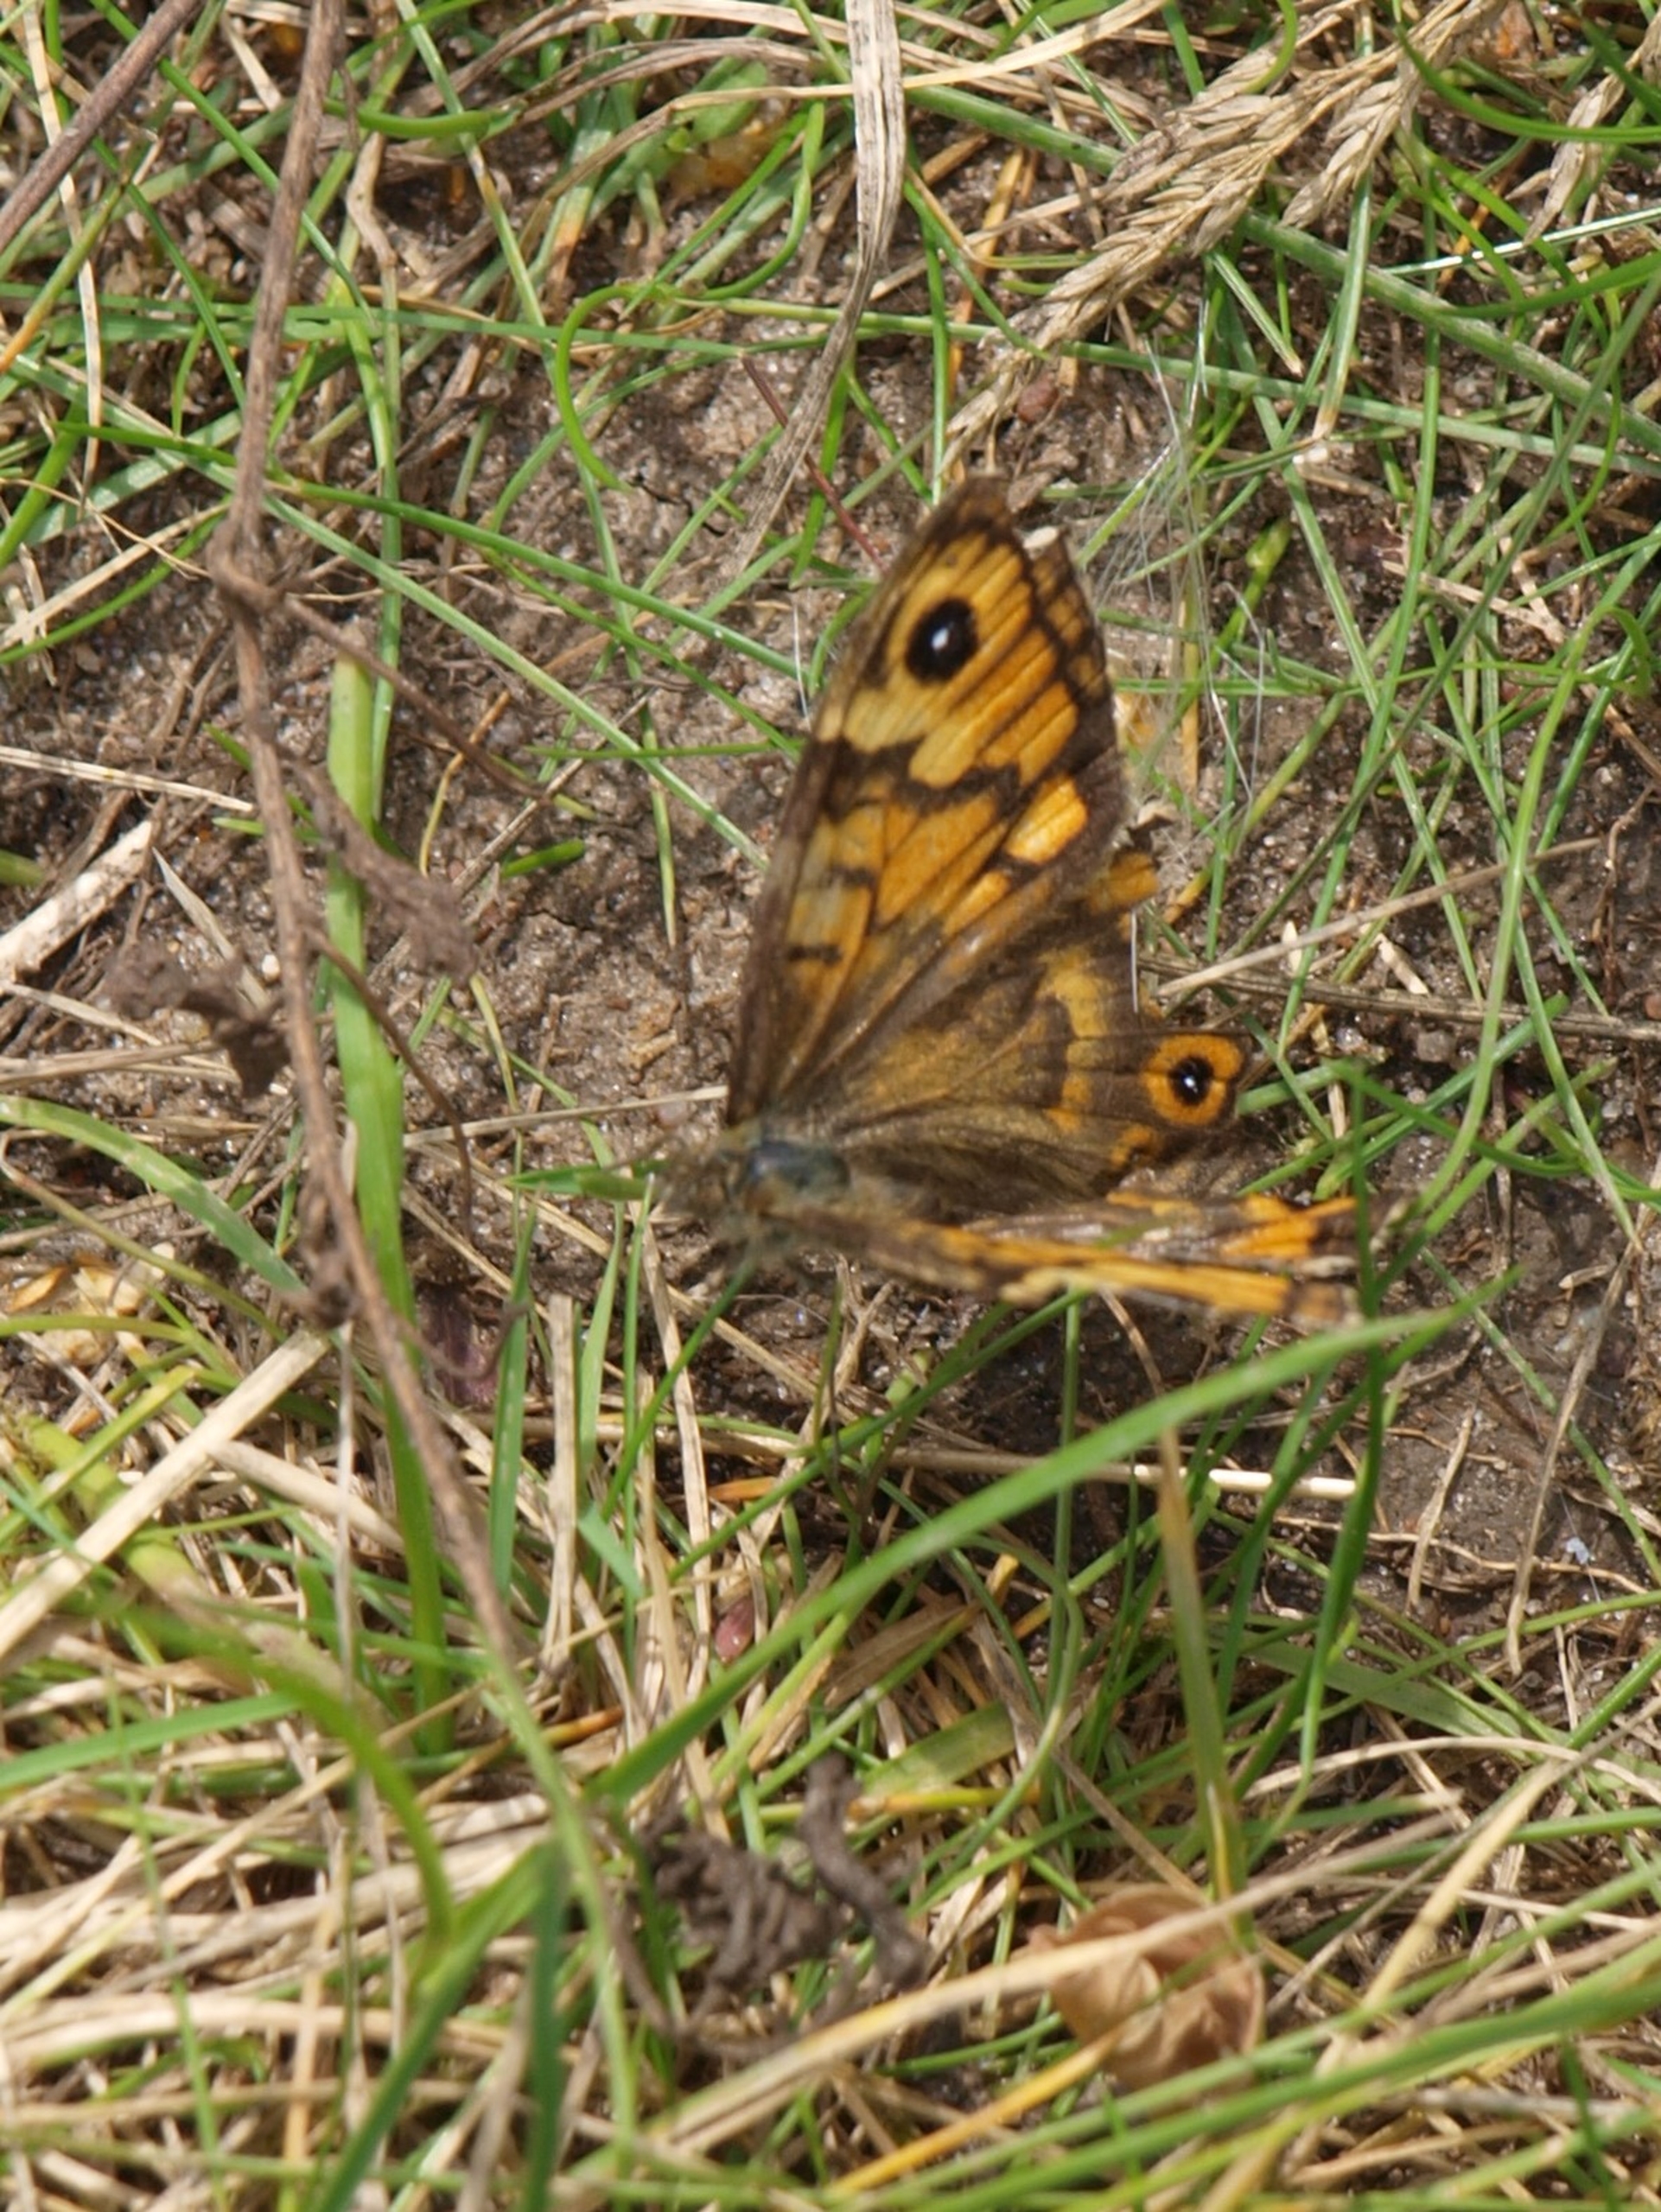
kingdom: Animalia
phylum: Arthropoda
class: Insecta
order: Lepidoptera
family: Nymphalidae
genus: Pararge
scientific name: Pararge Lasiommata megera
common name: Vejrandøje
